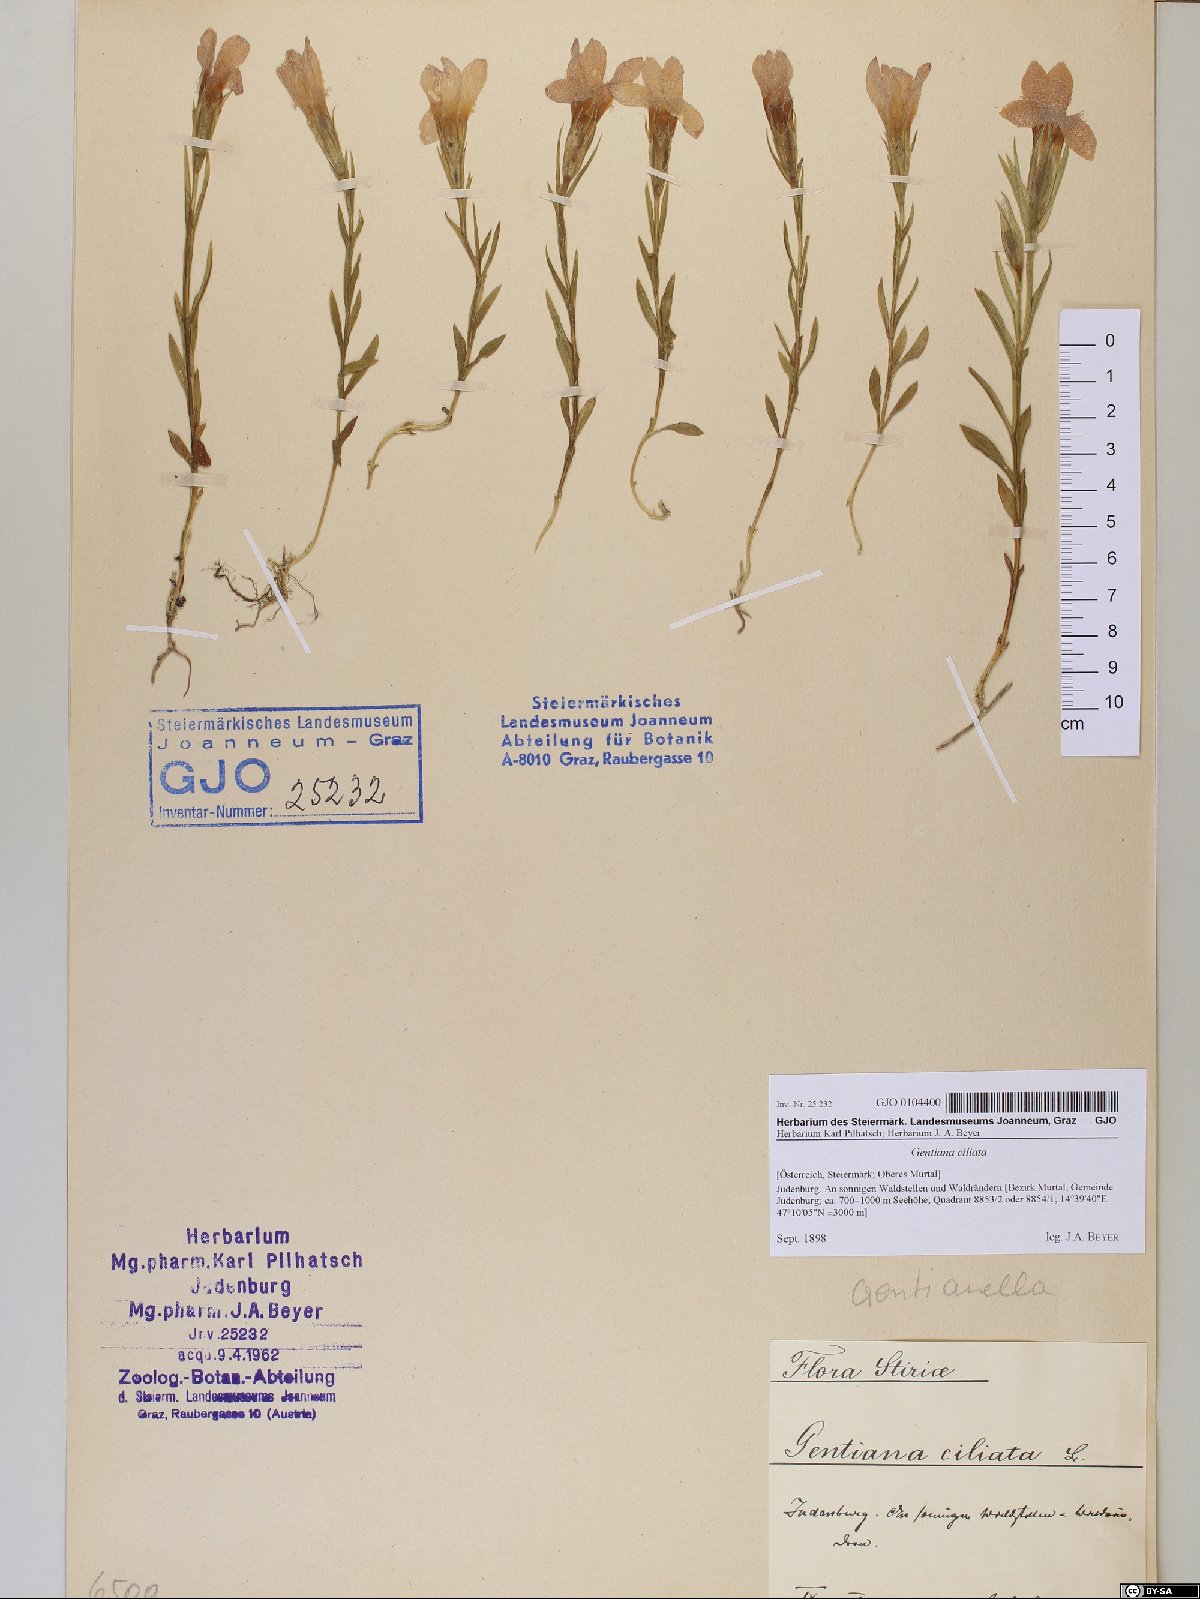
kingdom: Plantae
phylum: Tracheophyta
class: Magnoliopsida
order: Gentianales
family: Gentianaceae
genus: Gentianopsis
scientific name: Gentianopsis ciliata
